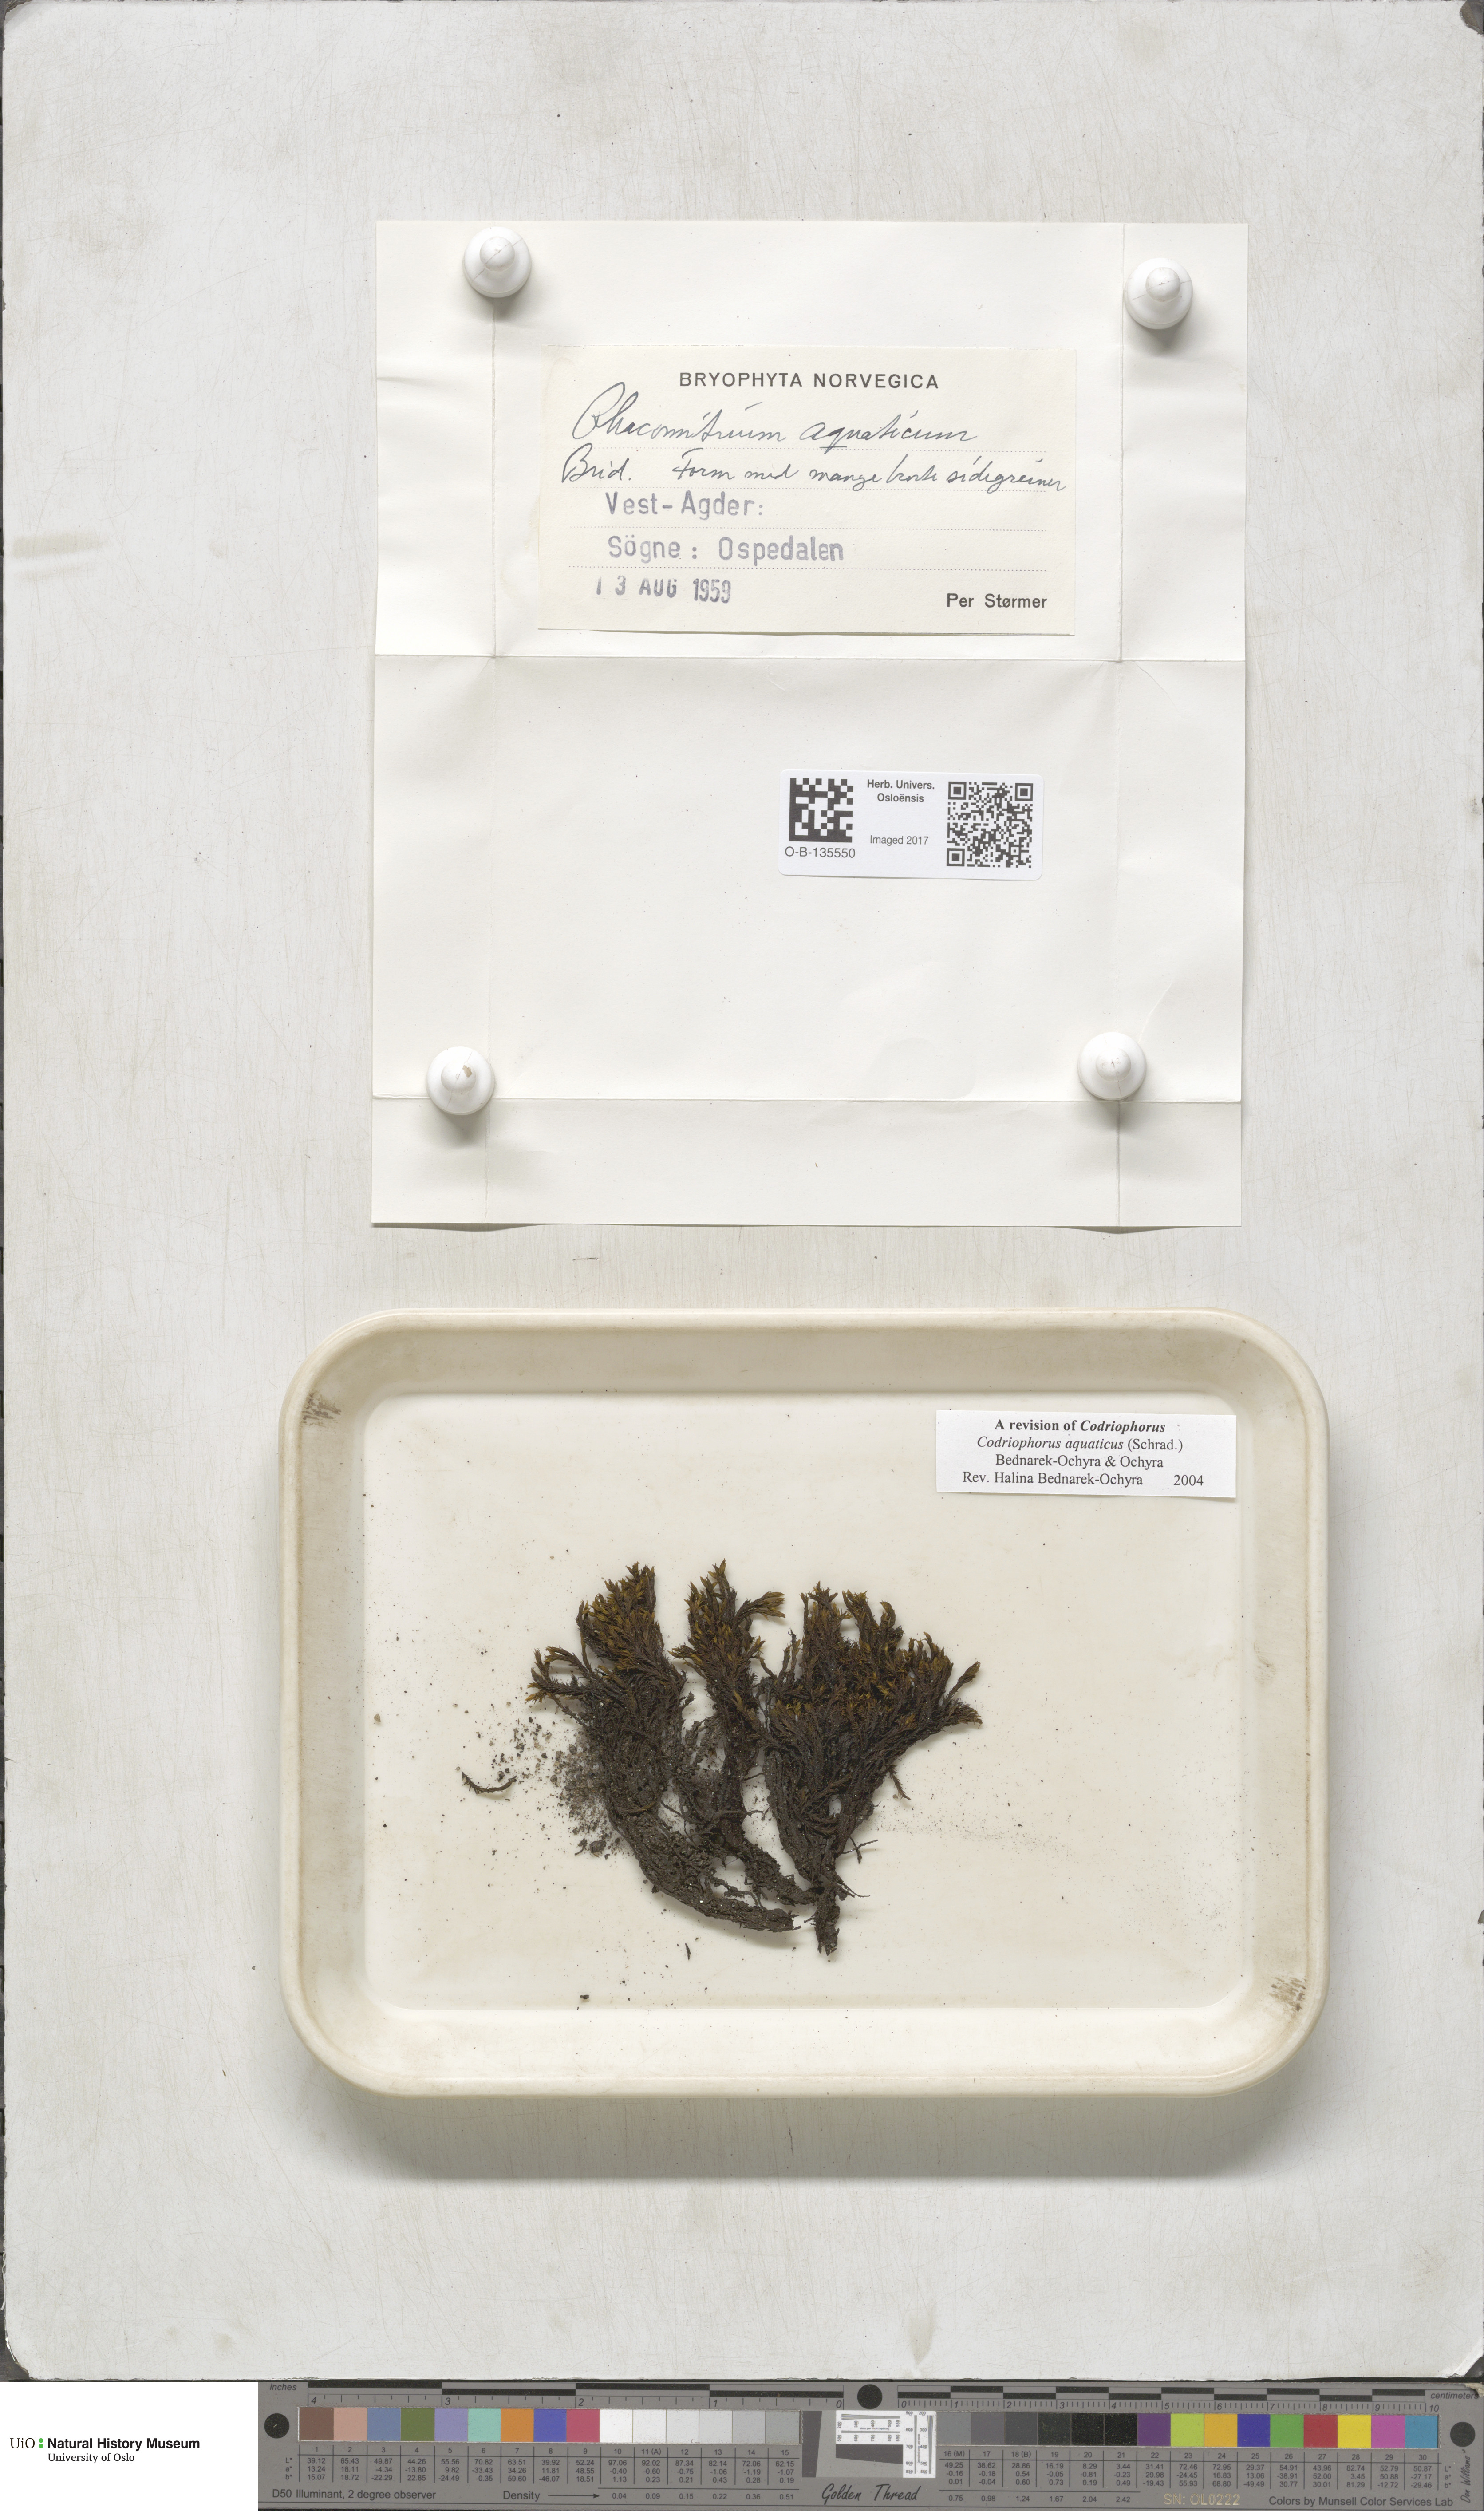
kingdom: Plantae
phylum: Bryophyta
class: Bryopsida
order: Grimmiales
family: Grimmiaceae
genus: Codriophorus
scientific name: Codriophorus aquaticus
